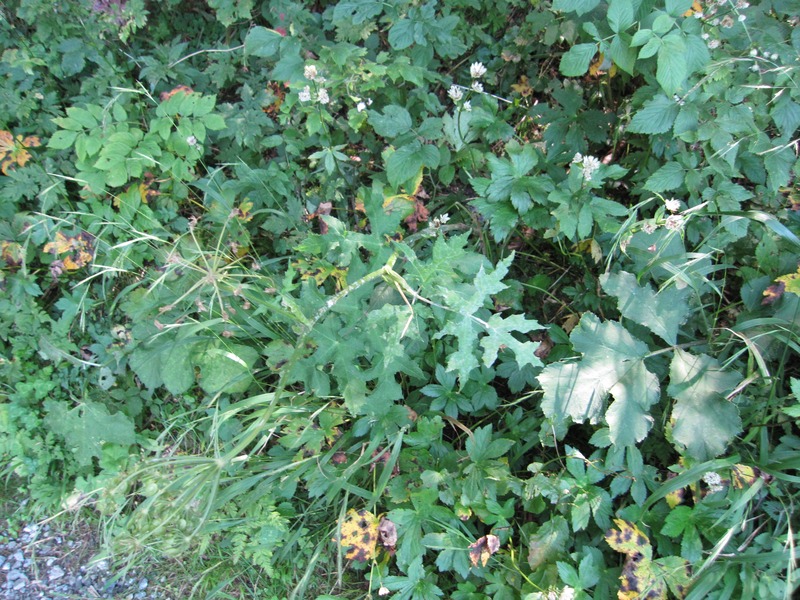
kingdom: Fungi
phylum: Ascomycota
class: Leotiomycetes
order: Helotiales
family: Erysiphaceae
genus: Erysiphe
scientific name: Erysiphe heraclei
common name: Umbellifer mildew
